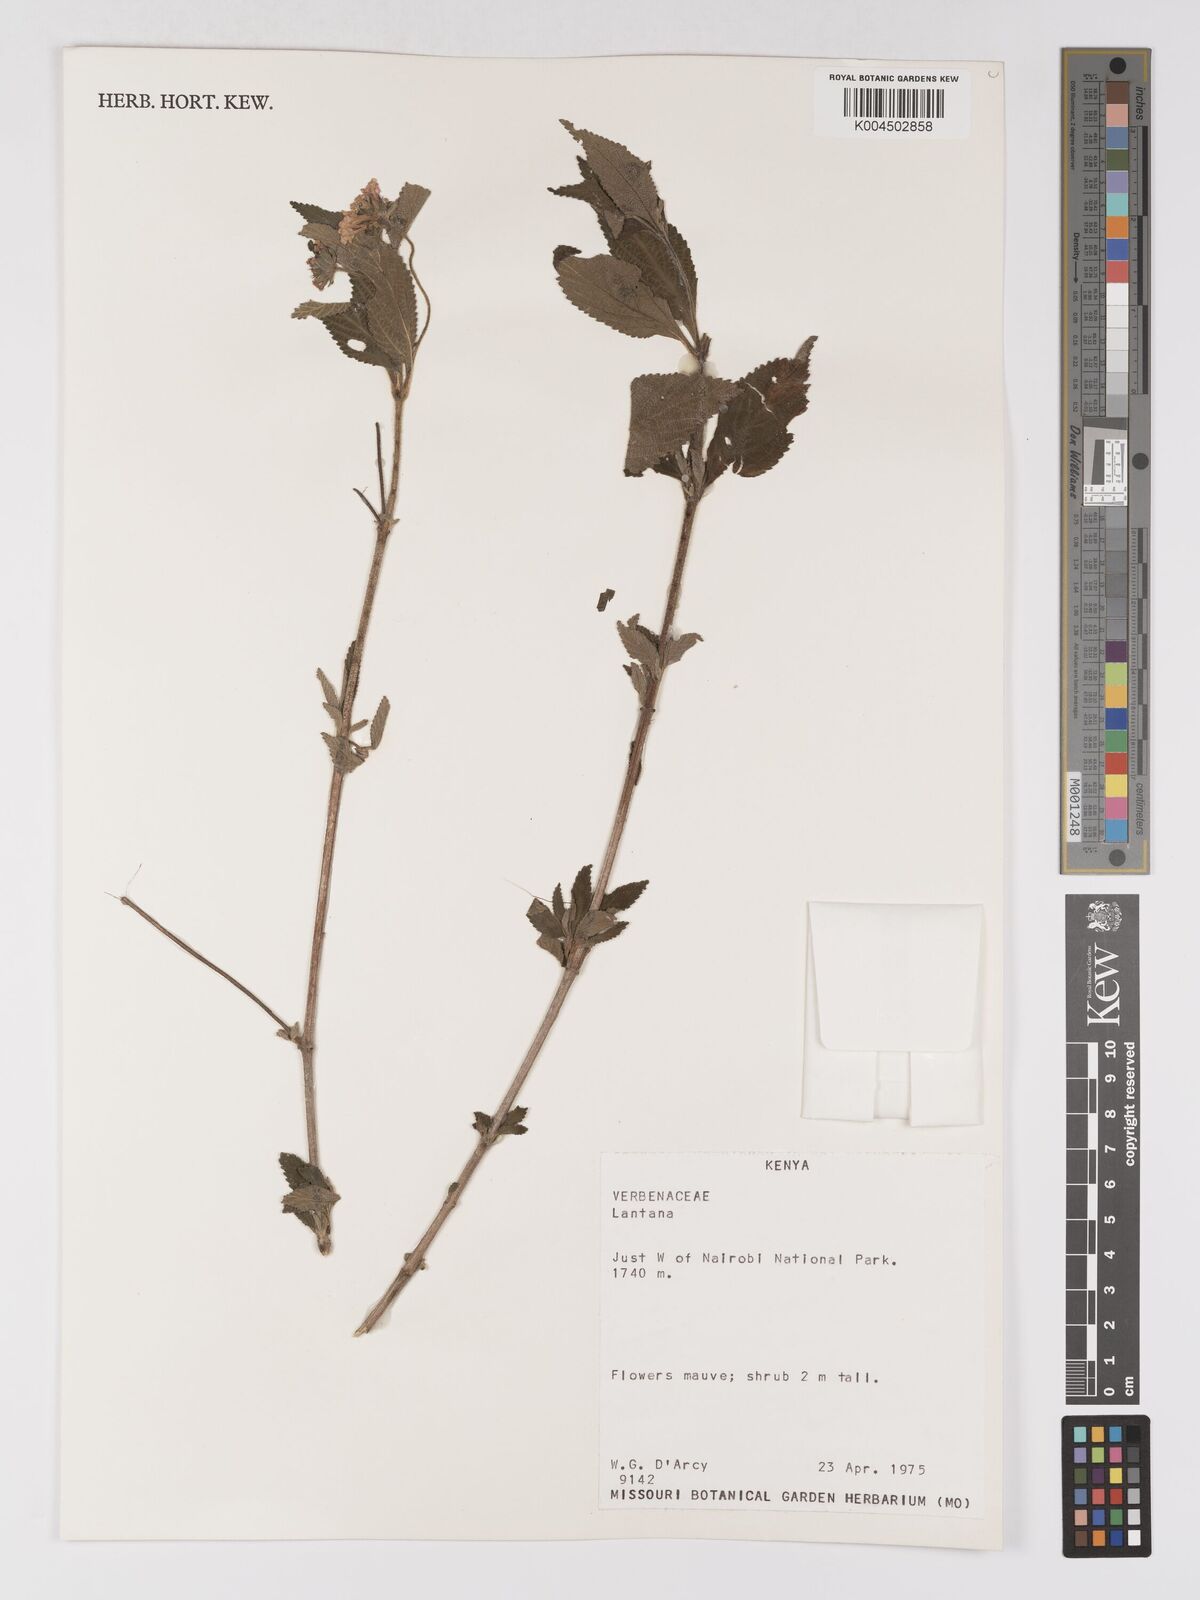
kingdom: Plantae
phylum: Tracheophyta
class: Magnoliopsida
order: Lamiales
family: Verbenaceae
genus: Lantana
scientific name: Lantana trifolia
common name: Sweet-sage
